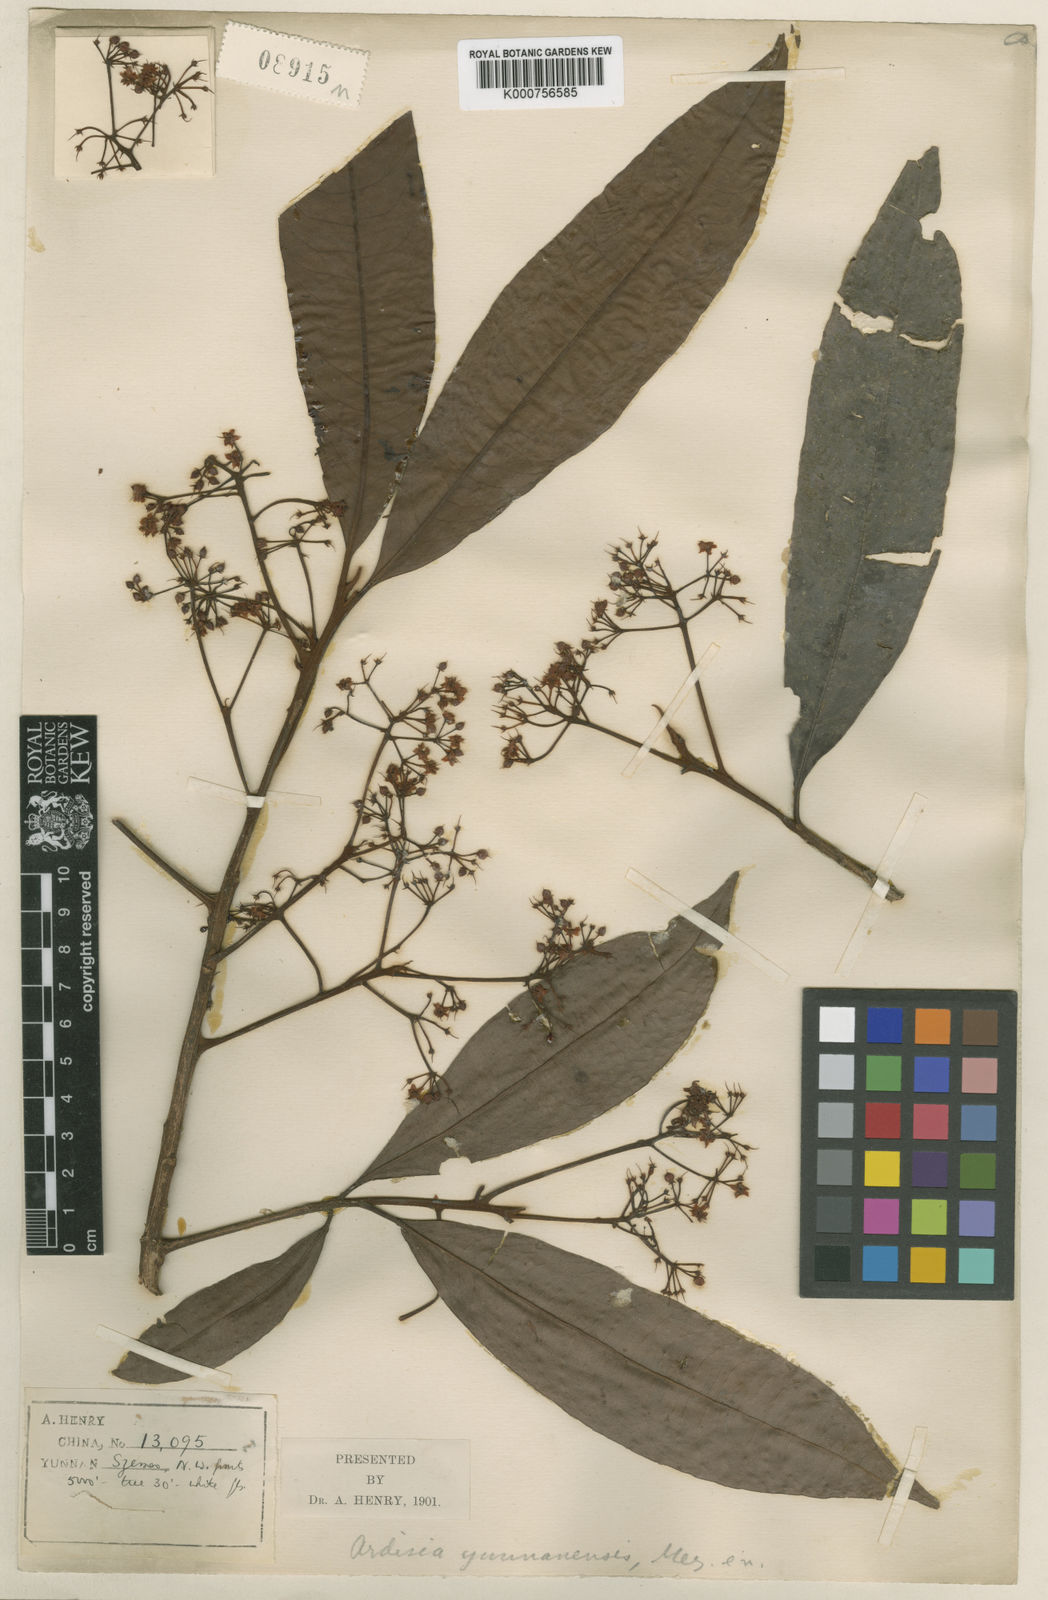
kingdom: Plantae
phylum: Tracheophyta
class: Magnoliopsida
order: Ericales
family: Primulaceae
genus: Ardisia
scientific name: Ardisia floribunda
